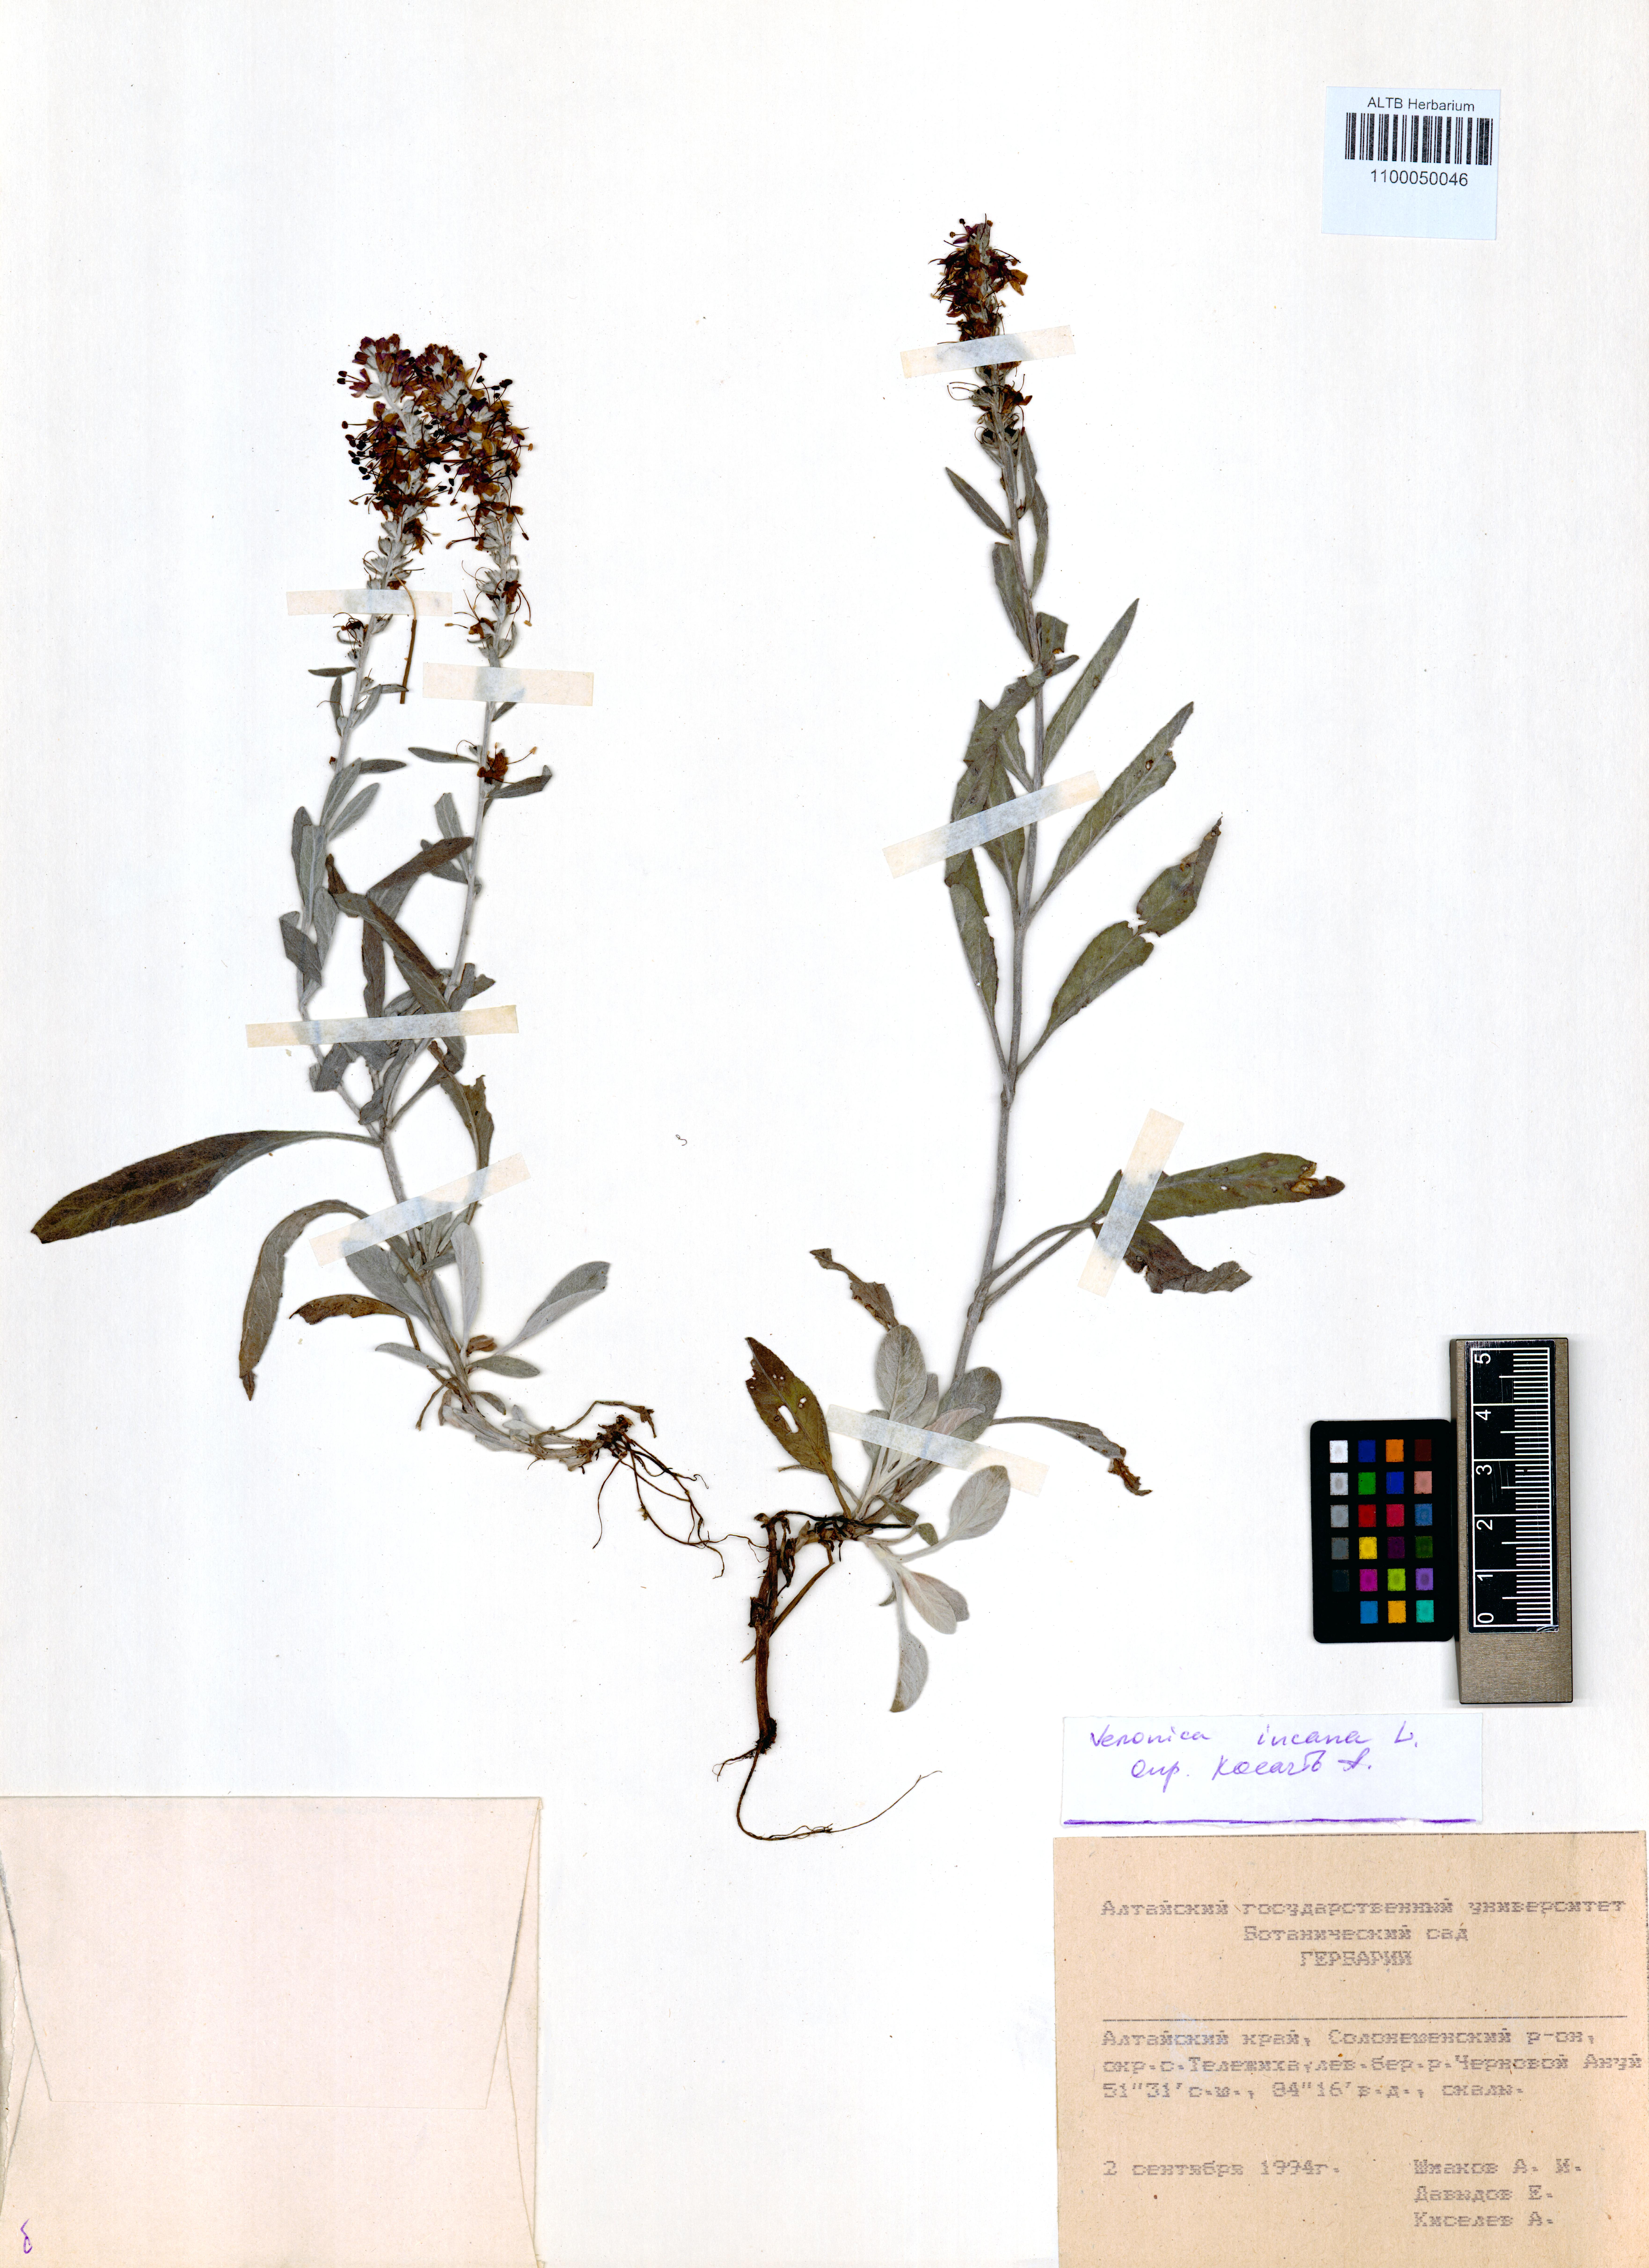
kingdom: Plantae
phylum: Tracheophyta
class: Magnoliopsida
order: Lamiales
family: Plantaginaceae
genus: Veronica
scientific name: Veronica incana
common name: Silver speedwell
